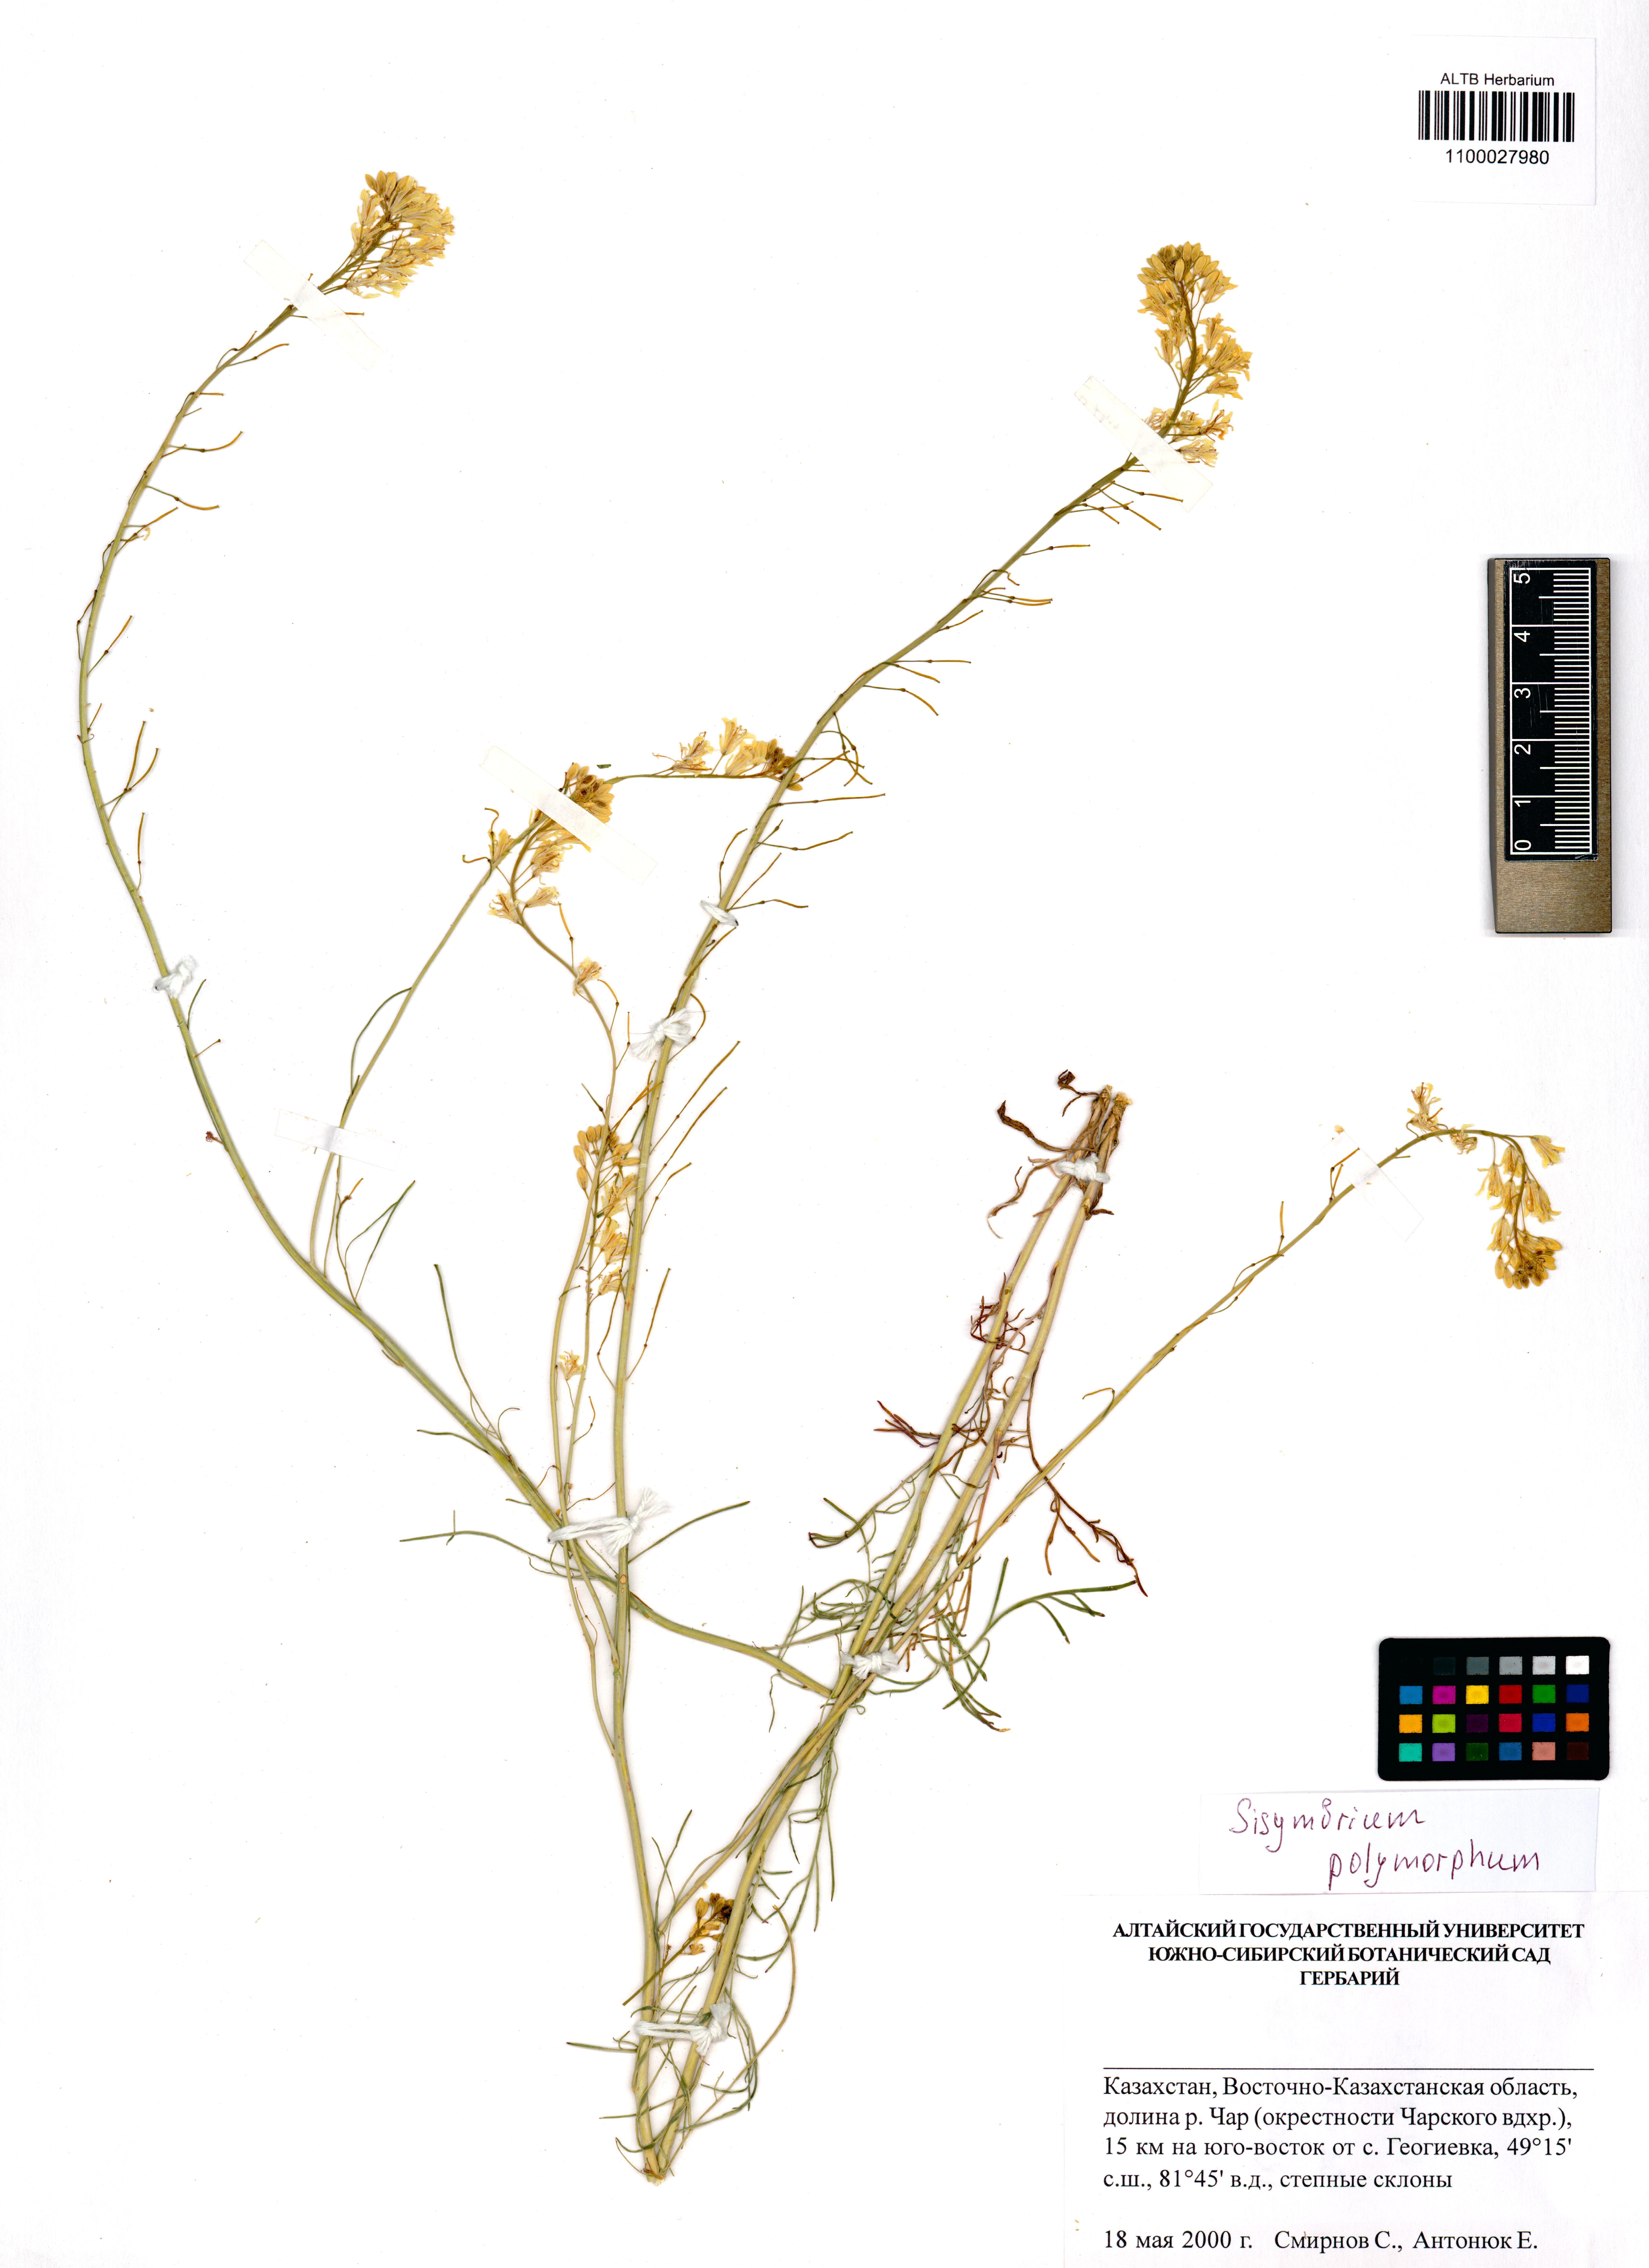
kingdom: Plantae
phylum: Tracheophyta
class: Magnoliopsida
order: Brassicales
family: Brassicaceae
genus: Sisymbrium
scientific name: Sisymbrium polymorphum
